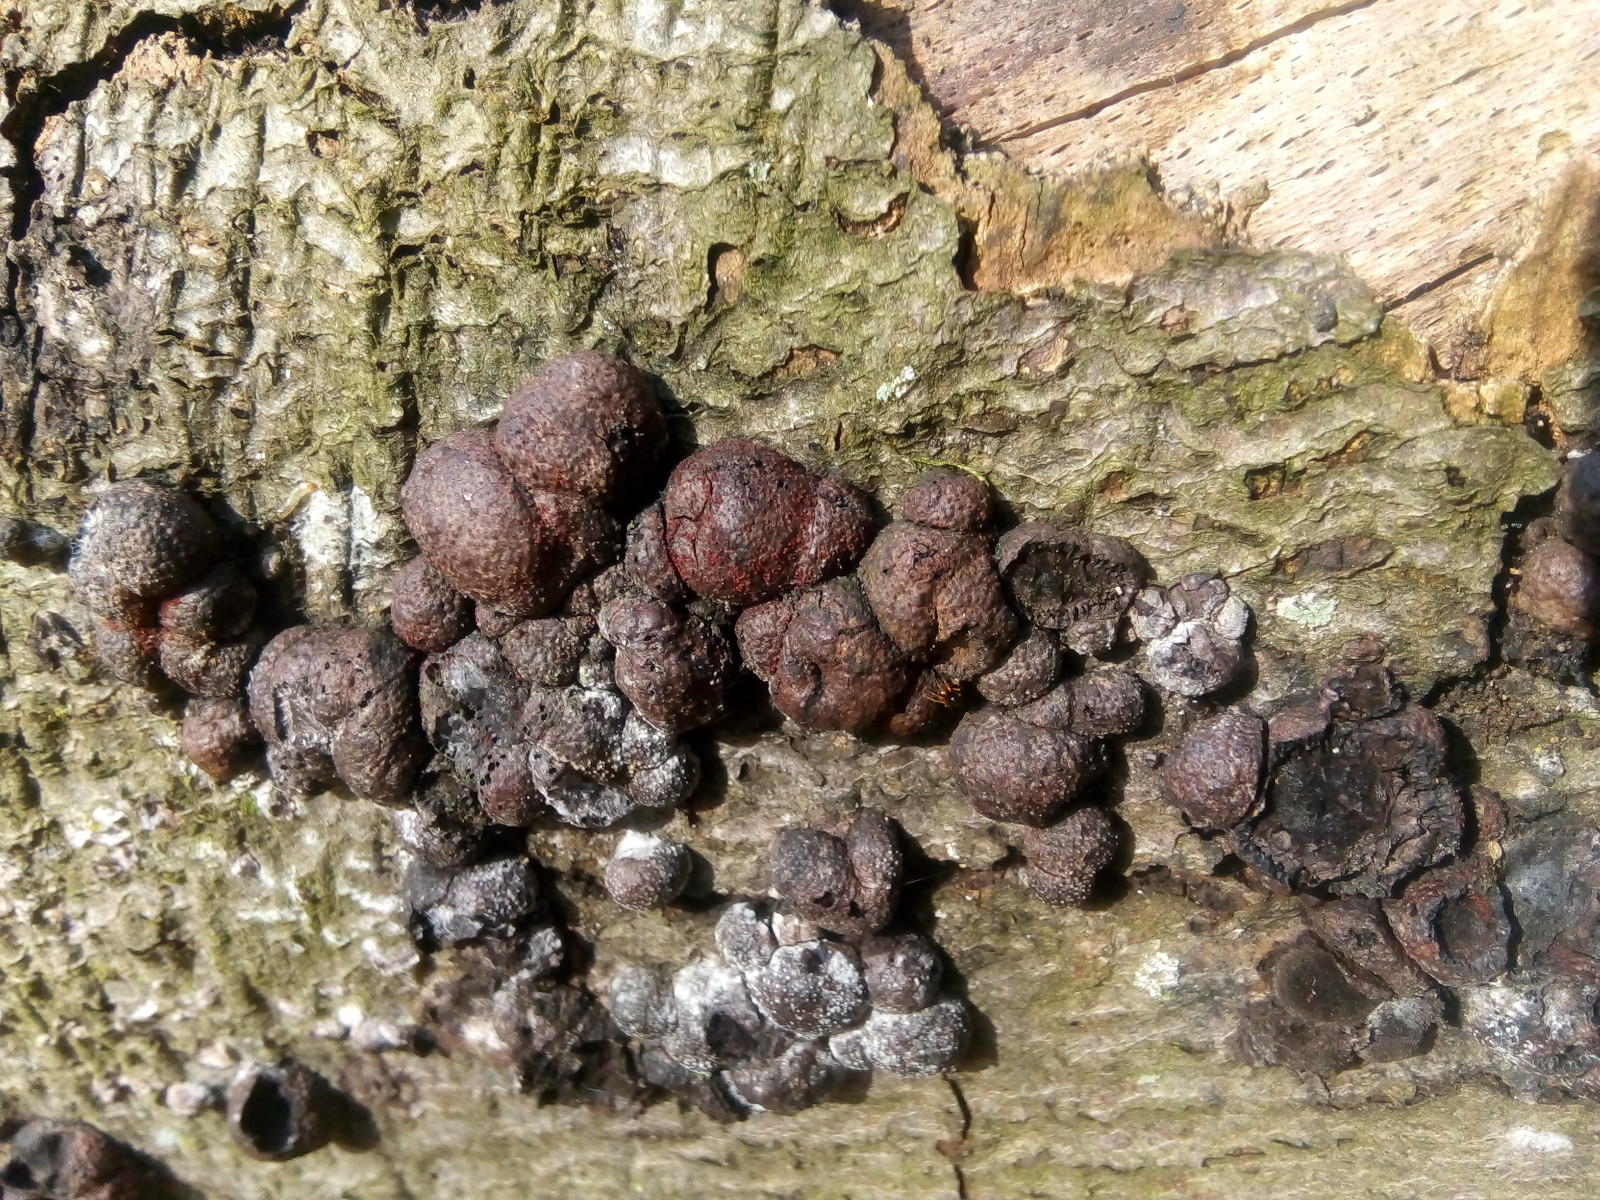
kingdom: Fungi
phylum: Ascomycota
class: Sordariomycetes
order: Xylariales
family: Hypoxylaceae
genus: Hypoxylon
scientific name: Hypoxylon fragiforme
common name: kuljordbær
